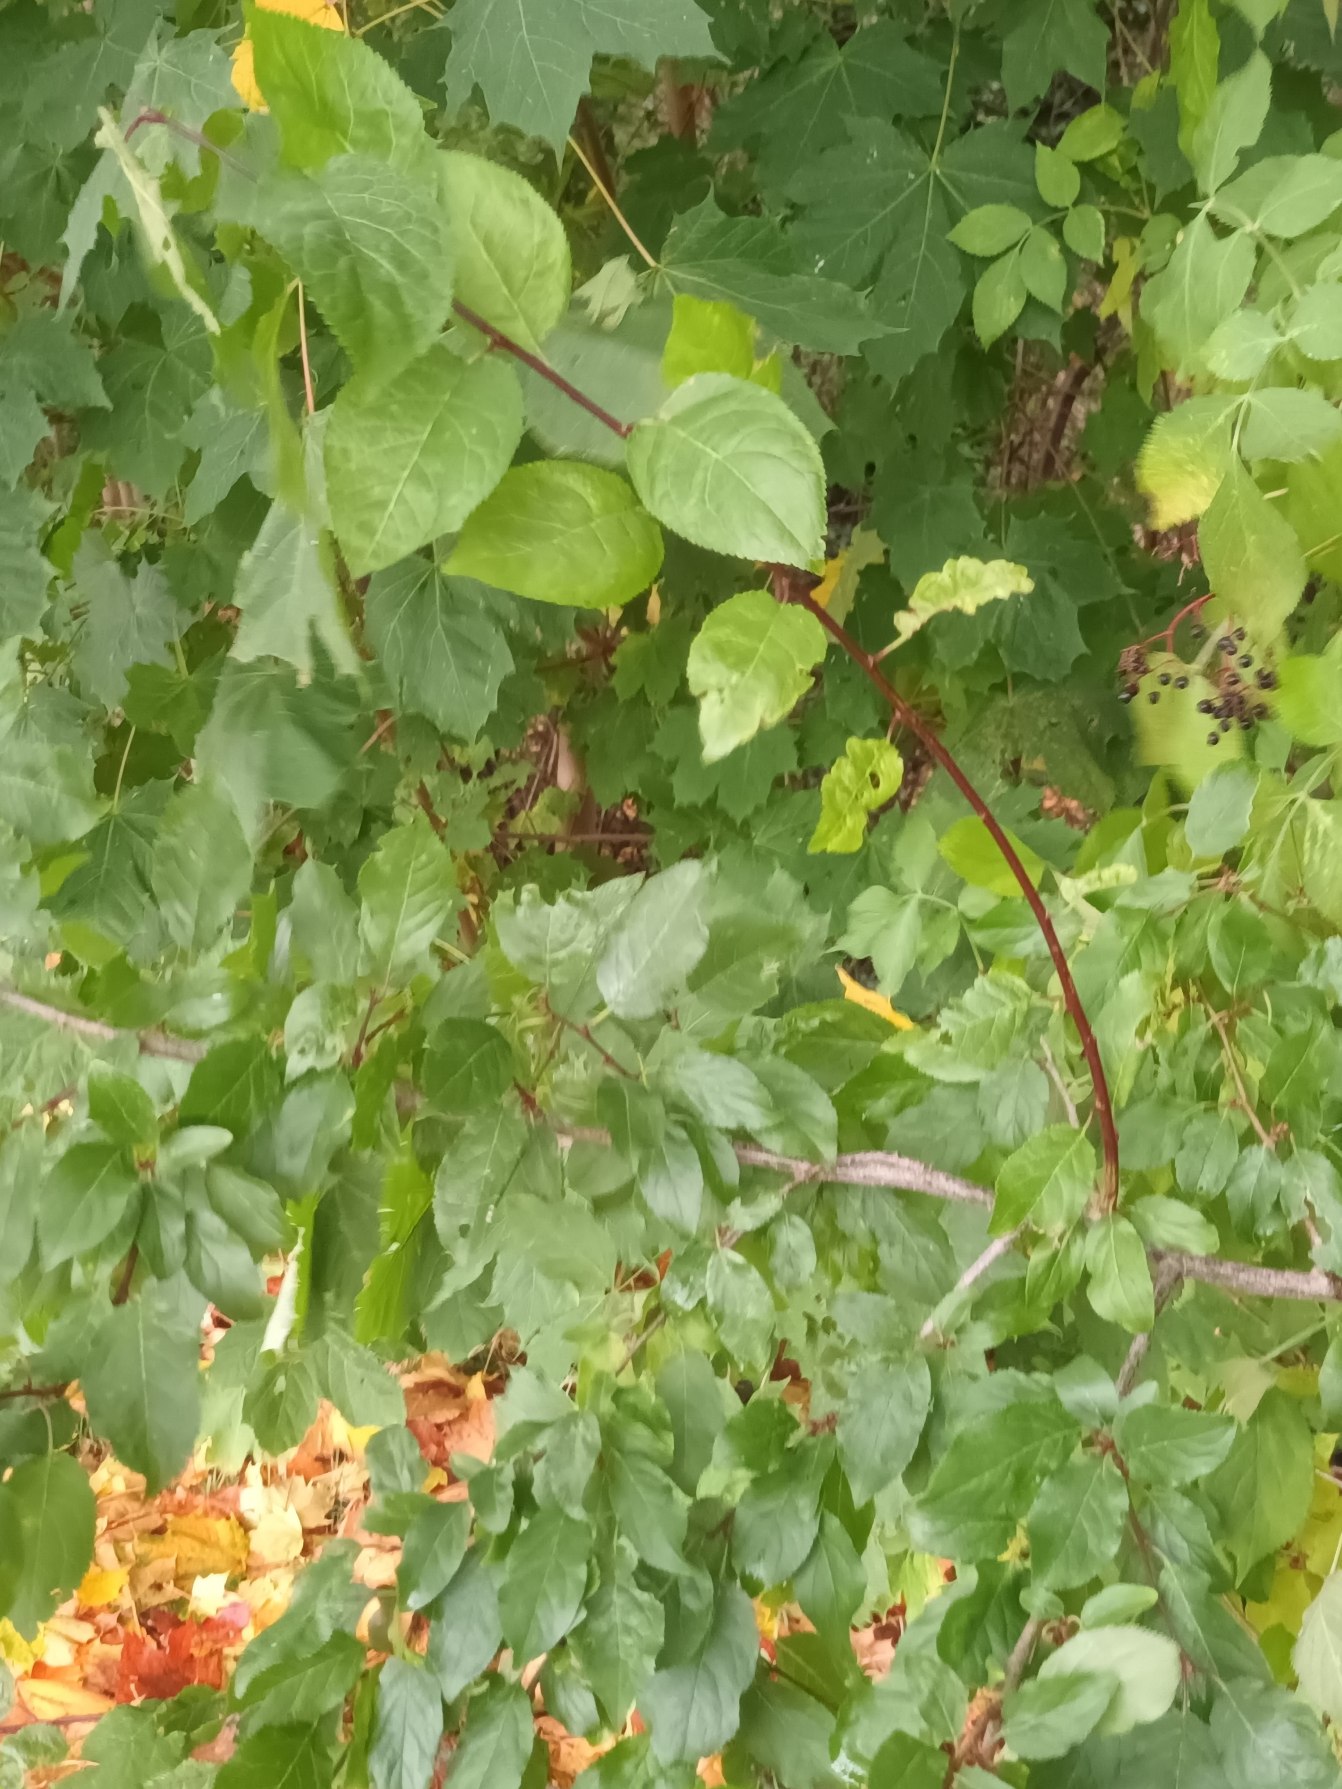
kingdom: Plantae
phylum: Tracheophyta
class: Magnoliopsida
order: Rosales
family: Rosaceae
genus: Prunus
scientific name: Prunus cerasifera
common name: Mirabel
